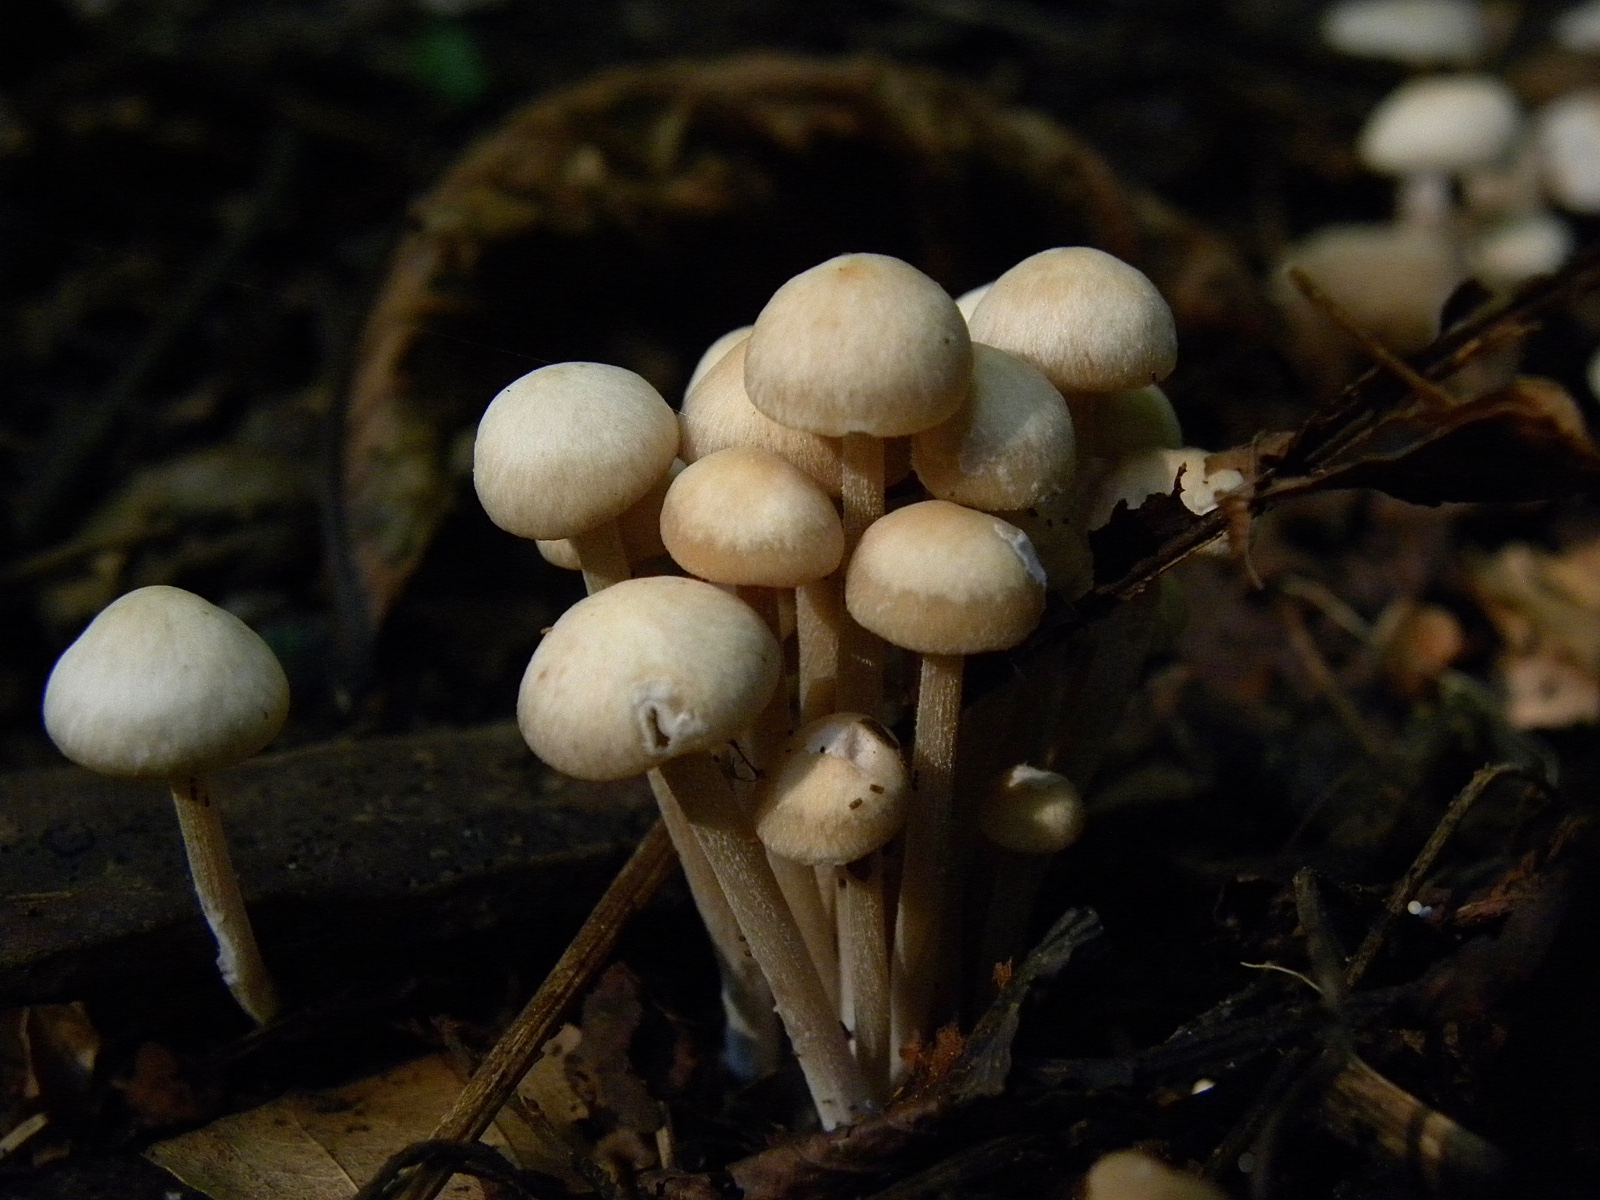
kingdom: Fungi
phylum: Basidiomycota
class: Agaricomycetes
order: Agaricales
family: Omphalotaceae
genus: Collybiopsis
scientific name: Collybiopsis confluens
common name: knippe-fladhat
